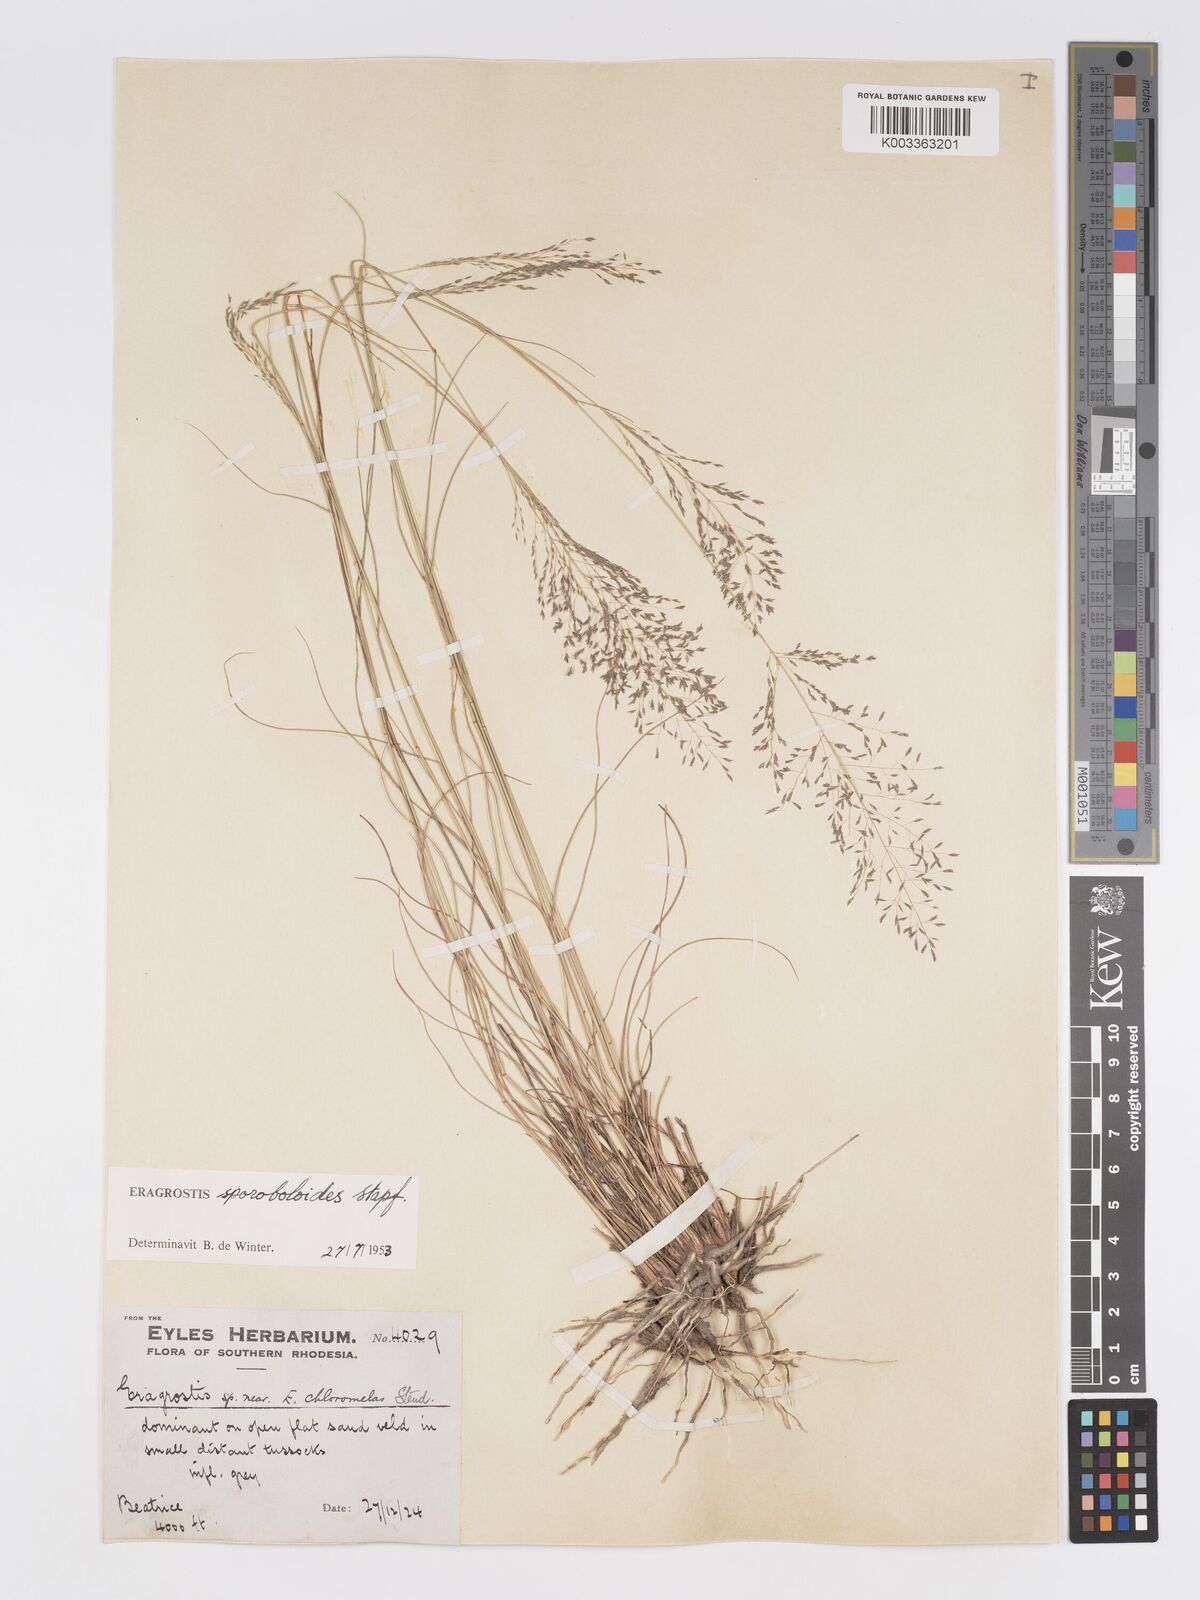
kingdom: Plantae
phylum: Tracheophyta
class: Liliopsida
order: Poales
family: Poaceae
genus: Eragrostis
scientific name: Eragrostis stapfii
